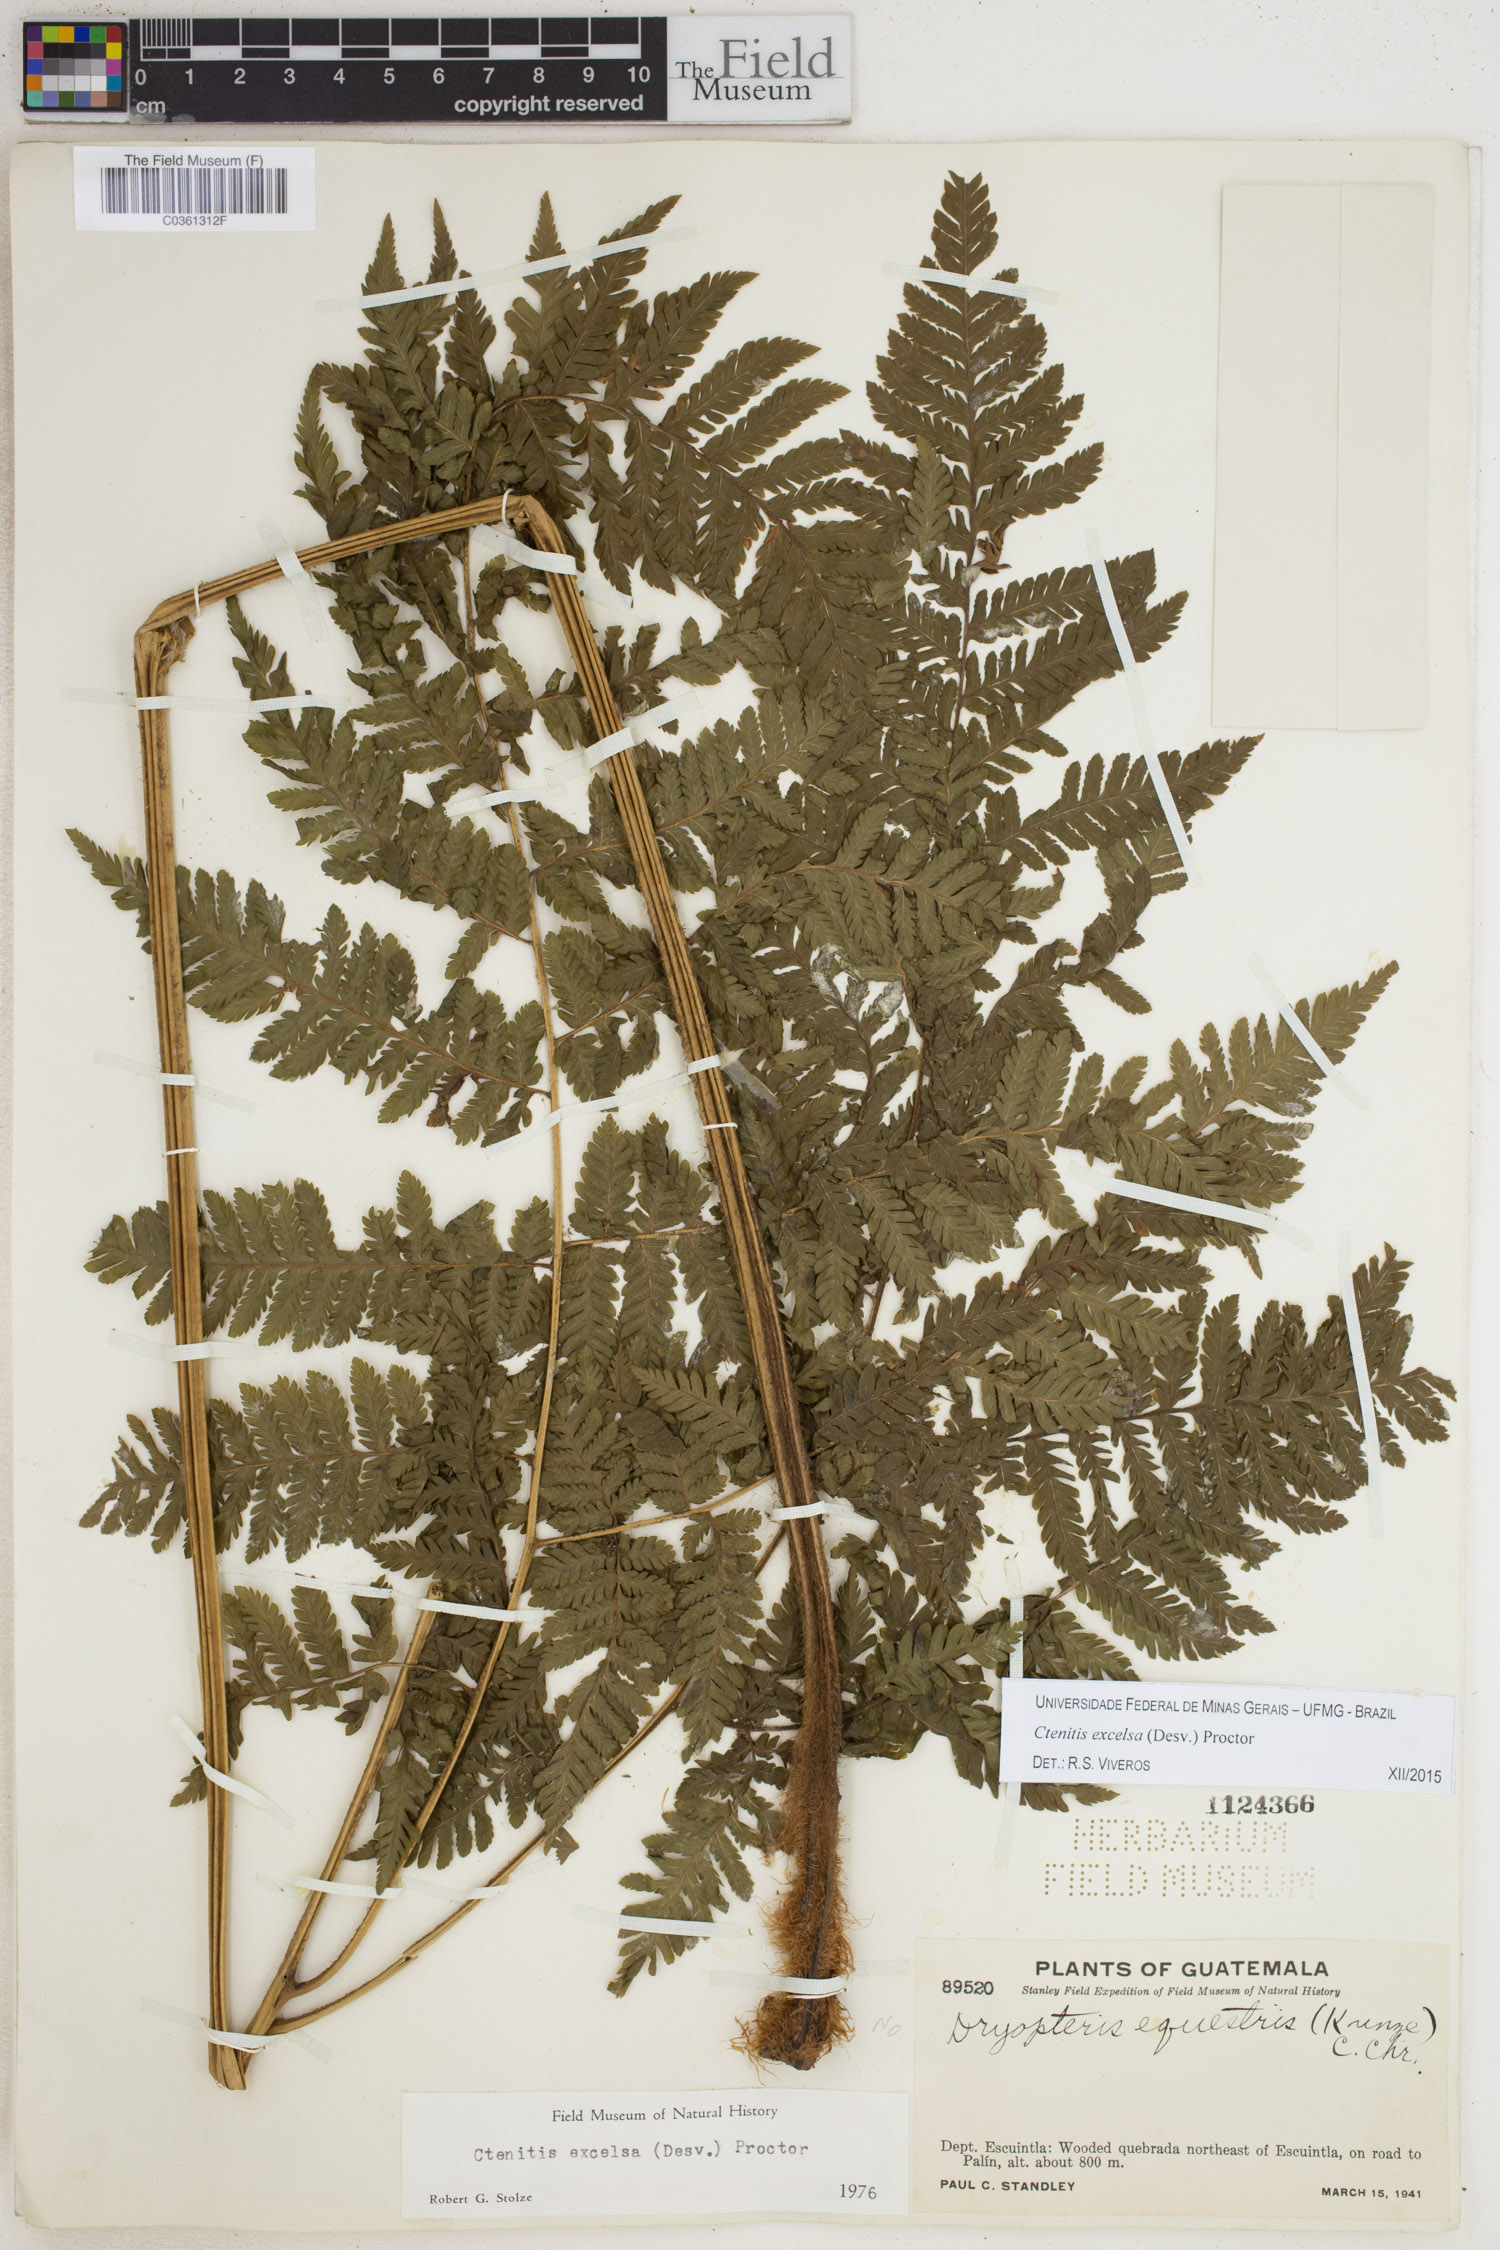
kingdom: Plantae
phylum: Tracheophyta
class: Polypodiopsida
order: Polypodiales
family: Dryopteridaceae
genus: Ctenitis
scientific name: Ctenitis excelsa
